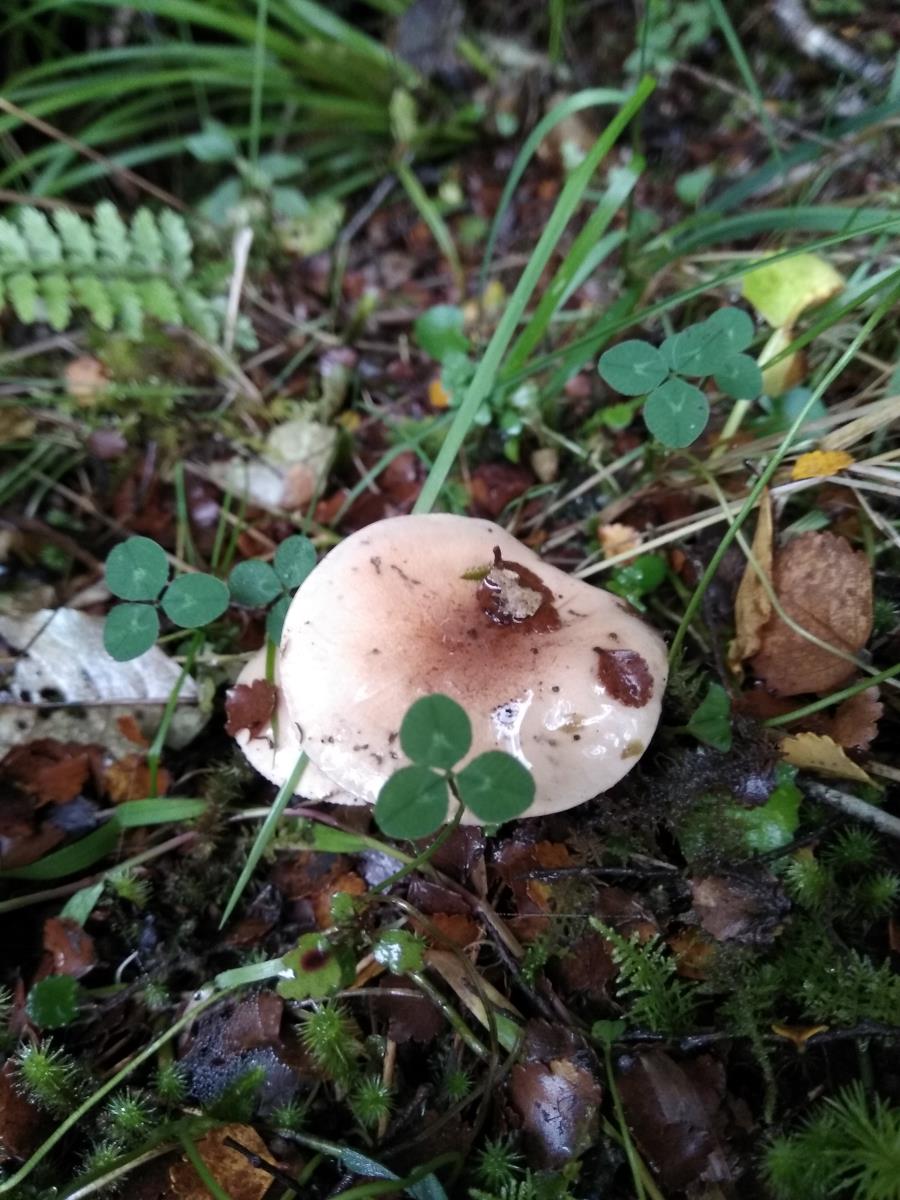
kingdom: Fungi
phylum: Basidiomycota
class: Agaricomycetes
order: Agaricales
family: Hymenogastraceae
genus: Hebeloma
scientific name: Hebeloma
